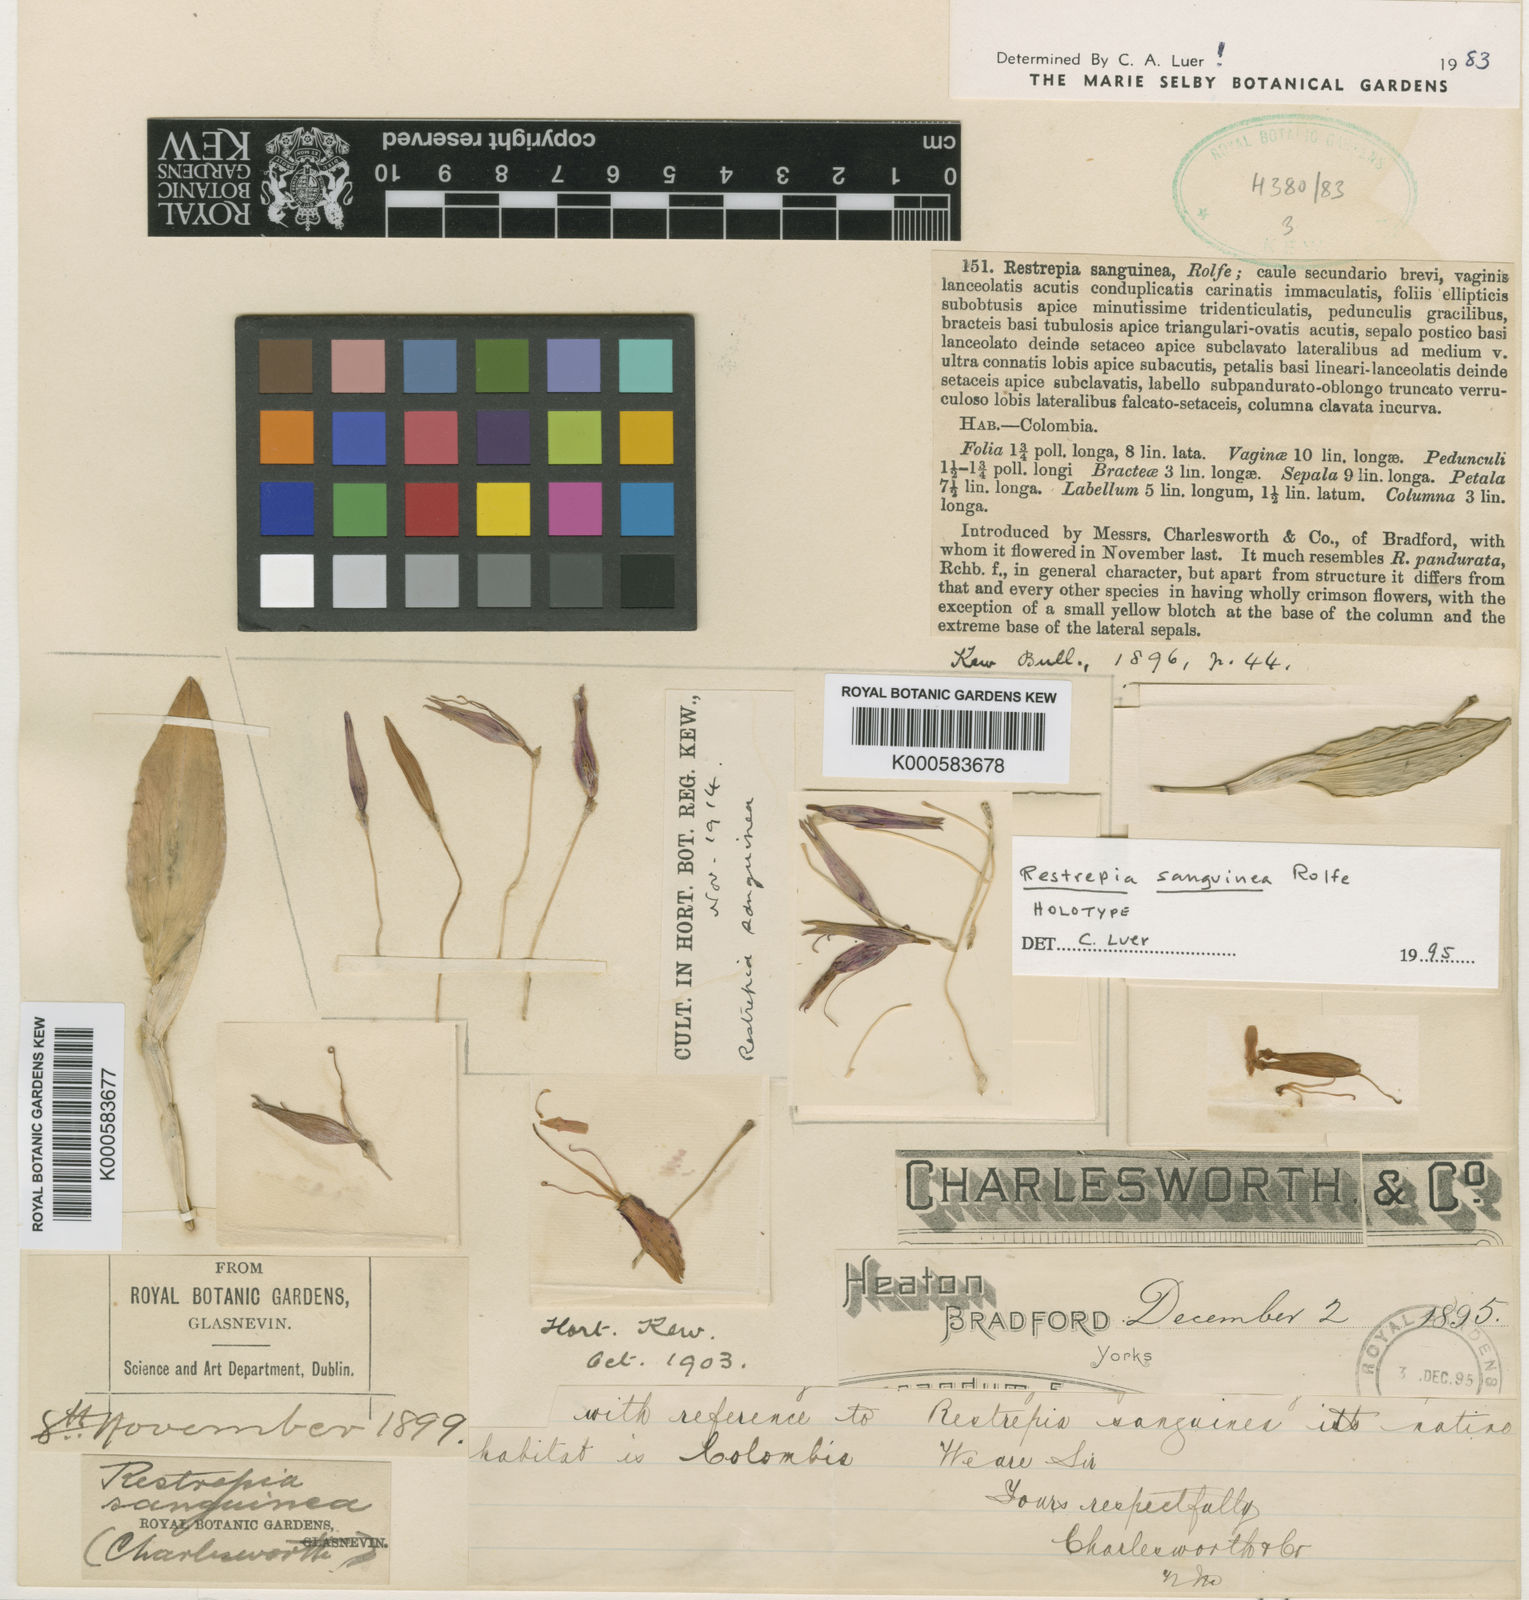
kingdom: Plantae
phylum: Tracheophyta
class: Liliopsida
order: Asparagales
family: Orchidaceae
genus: Restrepia
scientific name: Restrepia sanguinea
